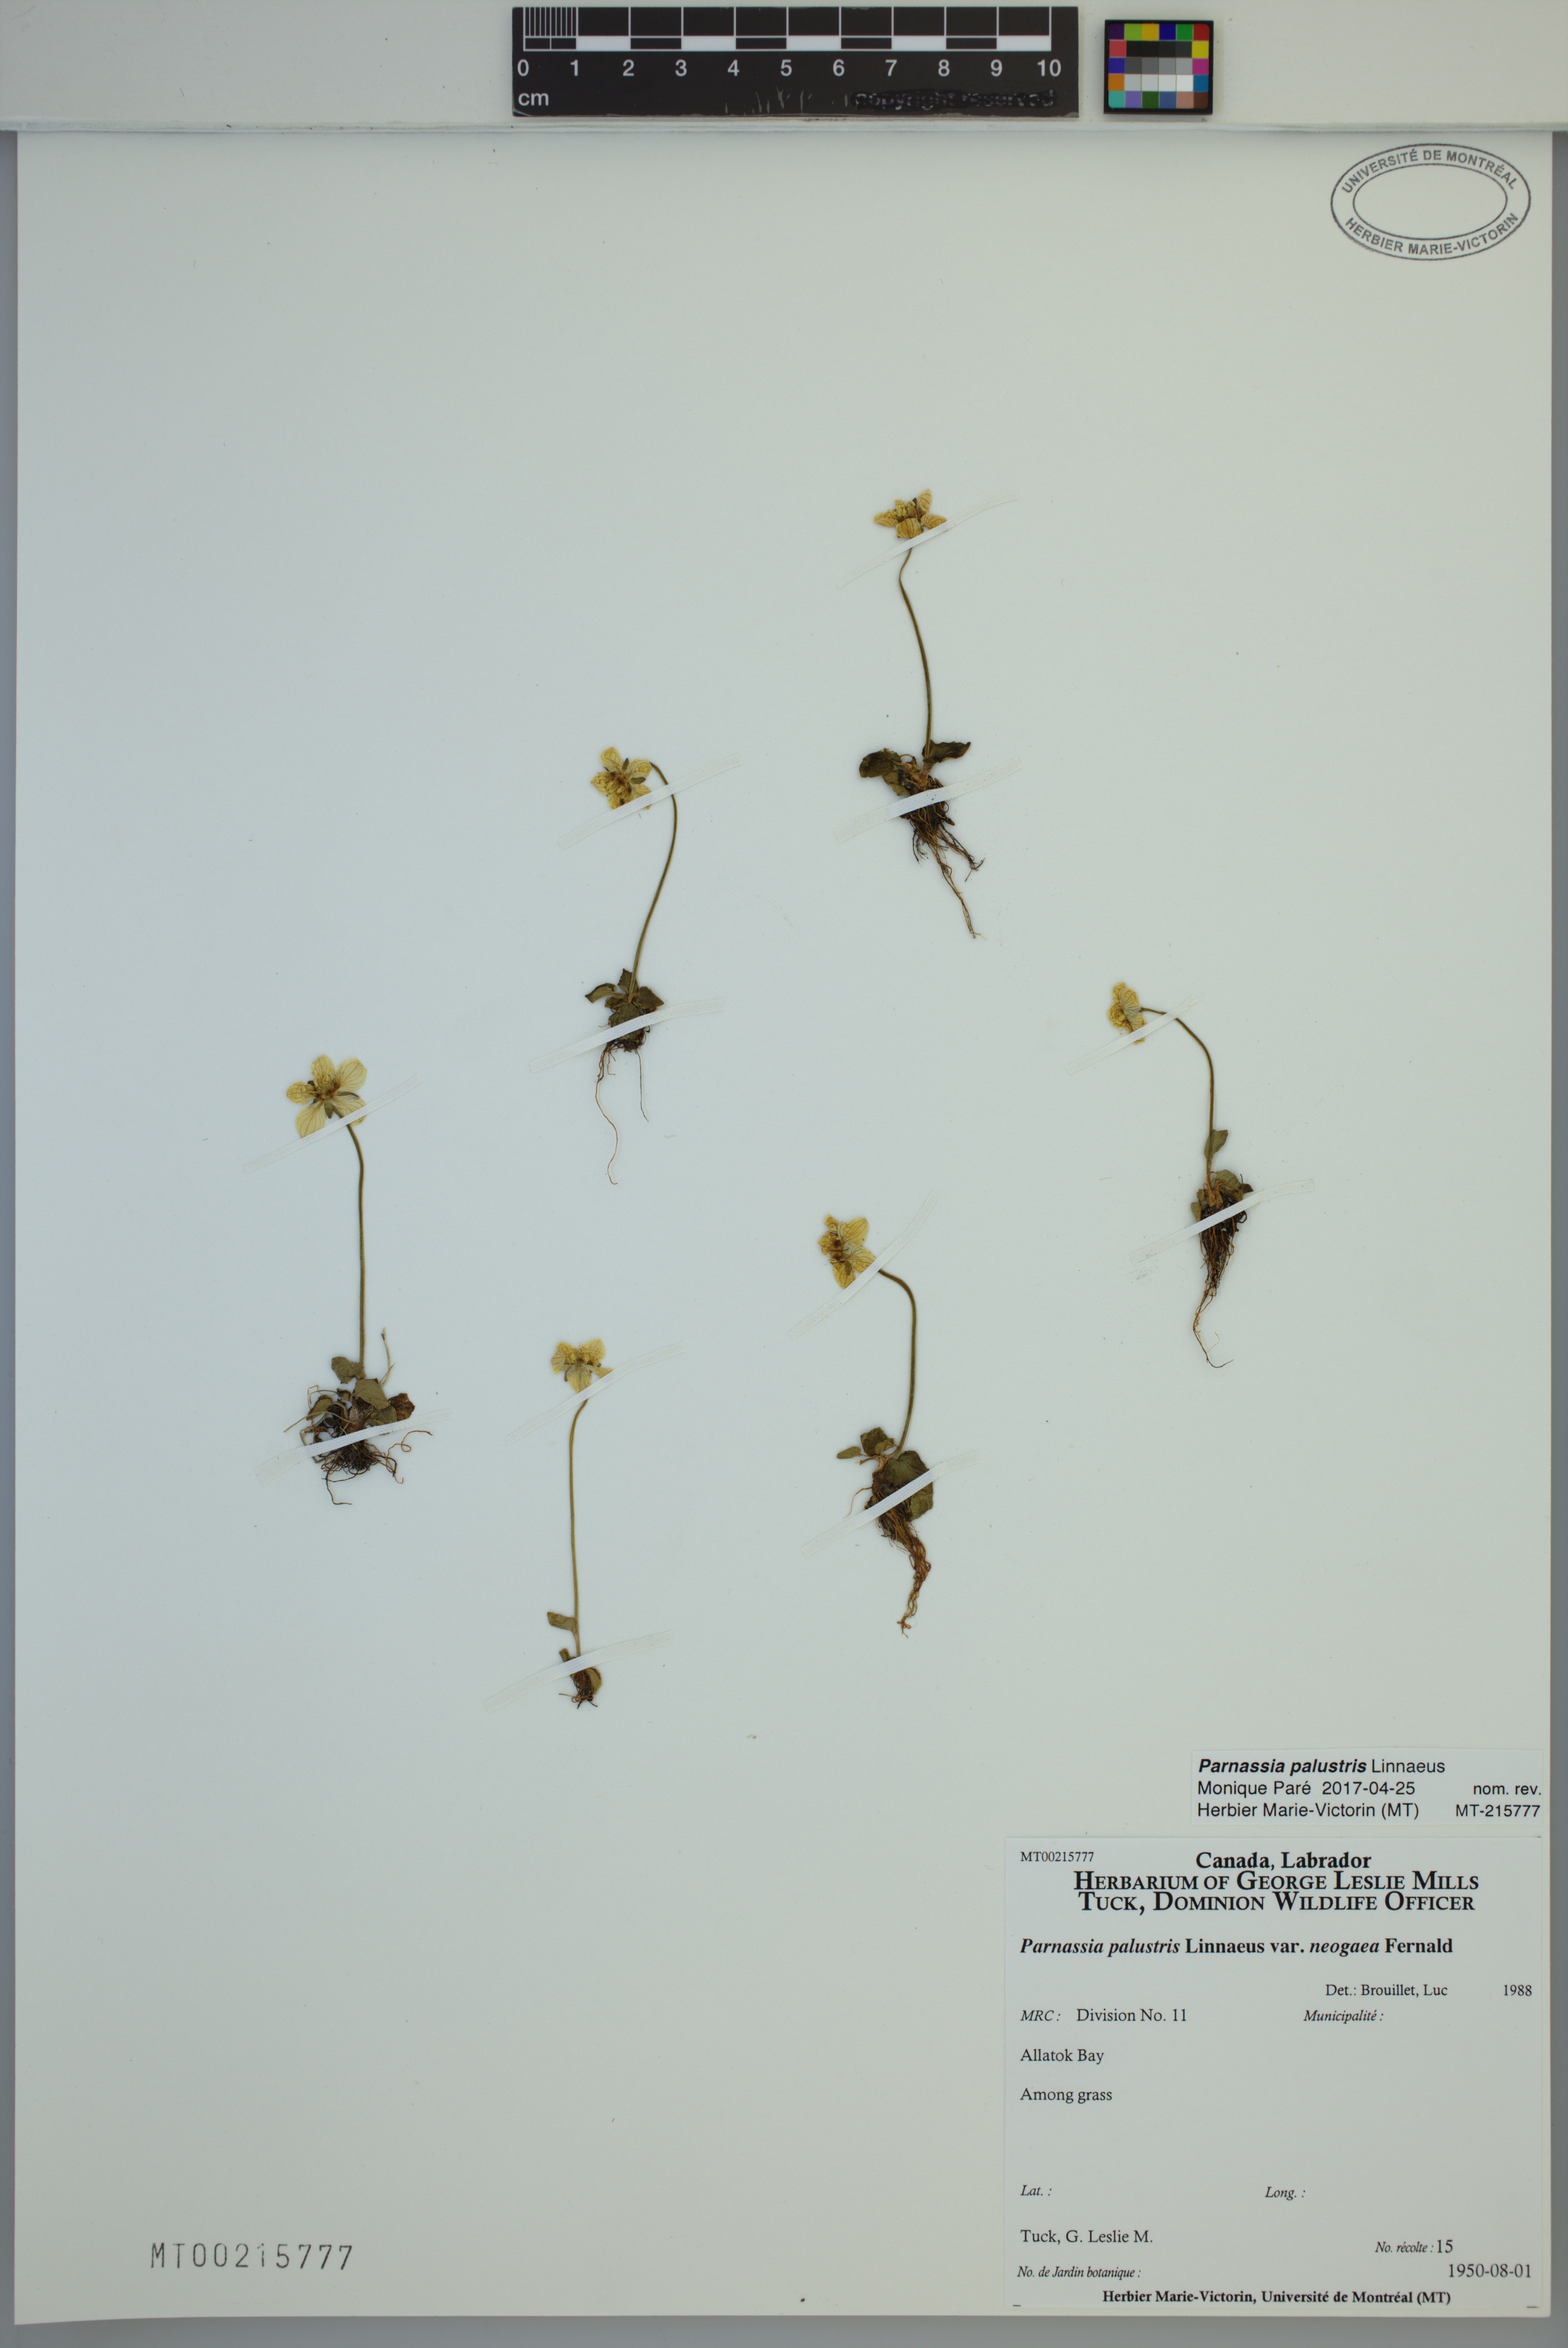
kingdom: Plantae
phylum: Tracheophyta
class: Magnoliopsida
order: Celastrales
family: Parnassiaceae
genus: Parnassia
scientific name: Parnassia palustris
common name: Grass-of-parnassus
